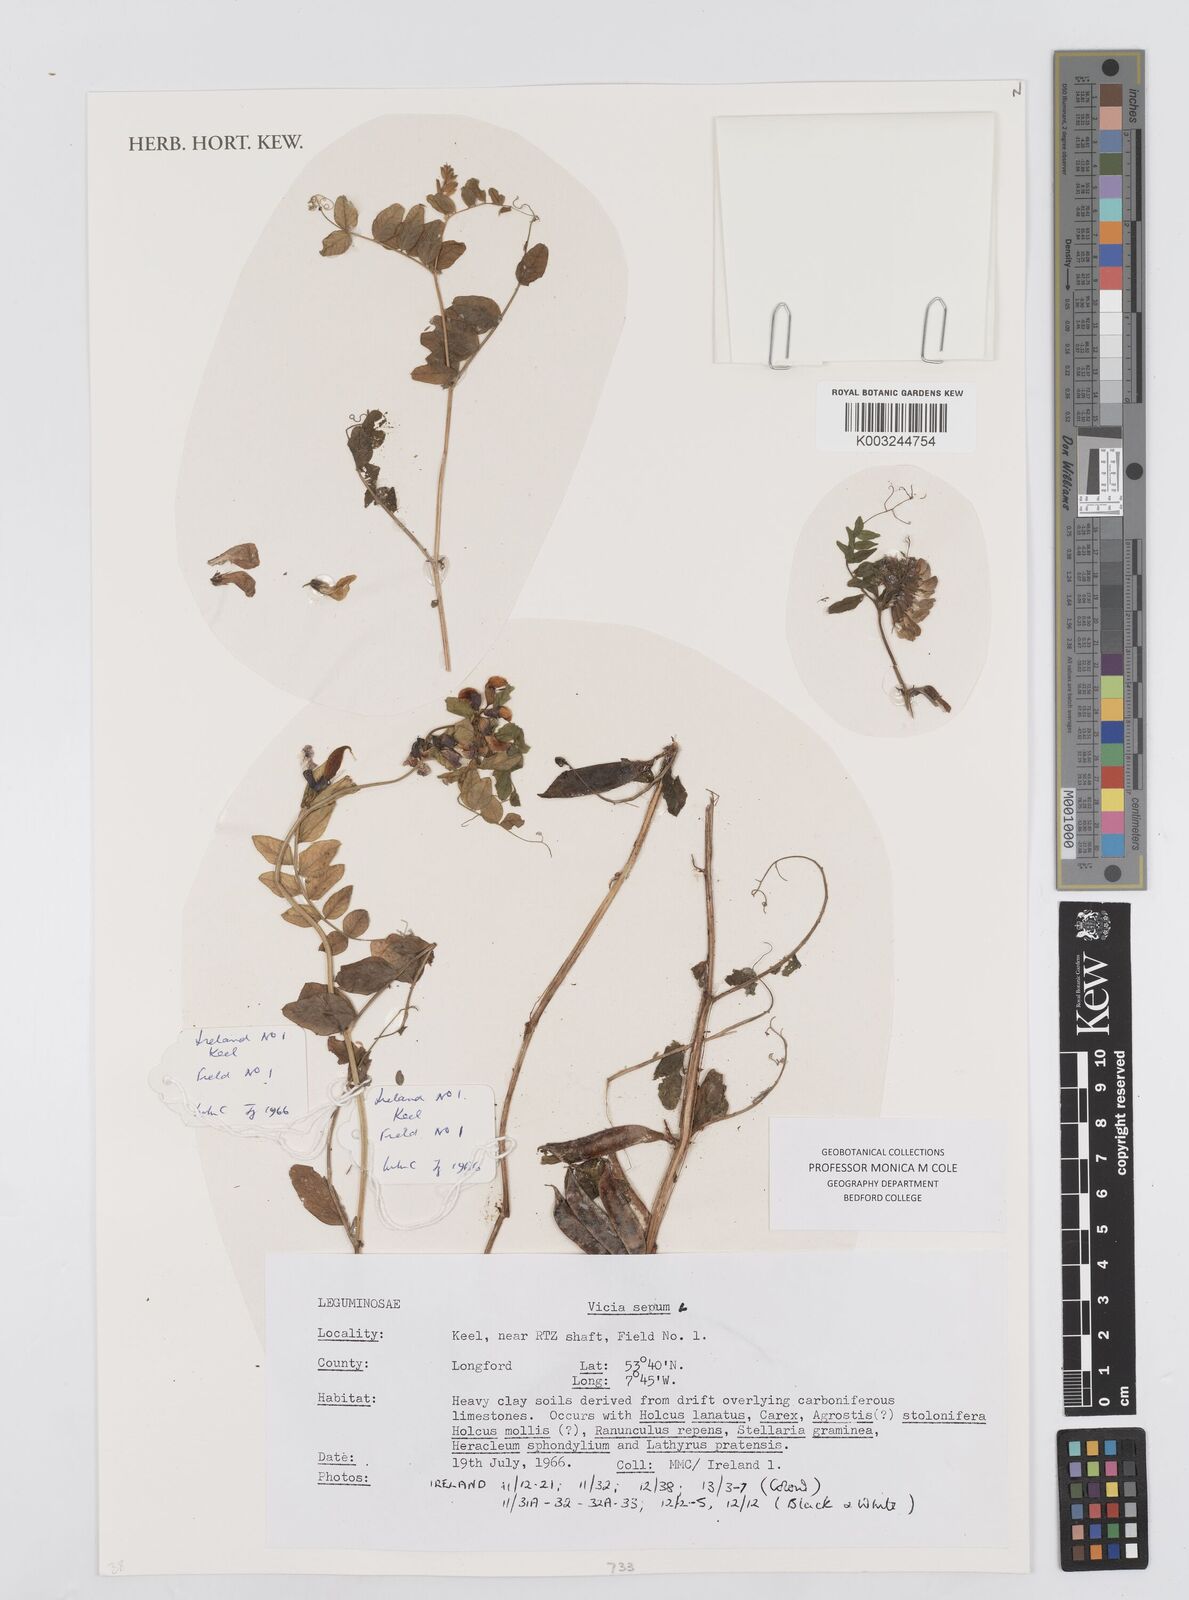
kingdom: Plantae
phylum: Tracheophyta
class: Magnoliopsida
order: Fabales
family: Fabaceae
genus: Vicia
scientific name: Vicia sepium
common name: Bush vetch
